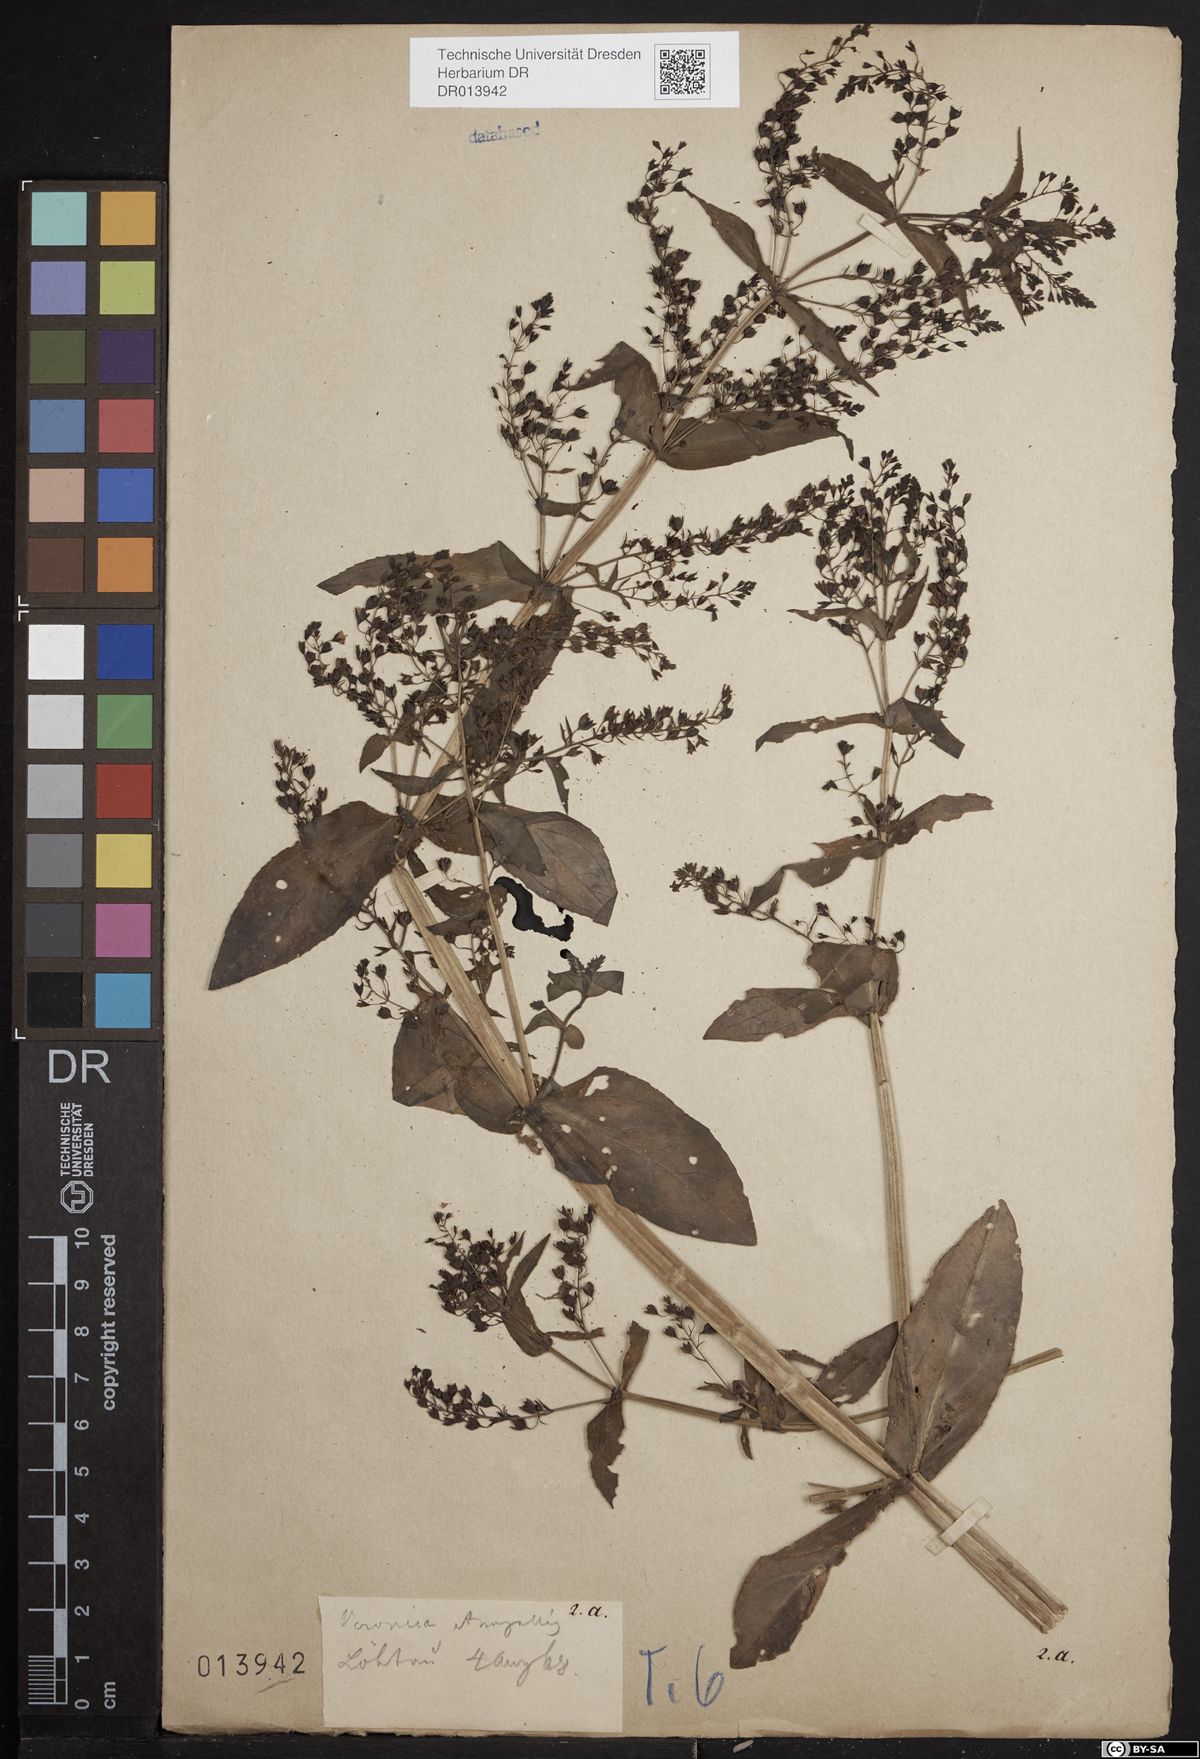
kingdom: Plantae
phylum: Tracheophyta
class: Magnoliopsida
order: Lamiales
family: Plantaginaceae
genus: Veronica
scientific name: Veronica anagallis-aquatica
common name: Water speedwell
